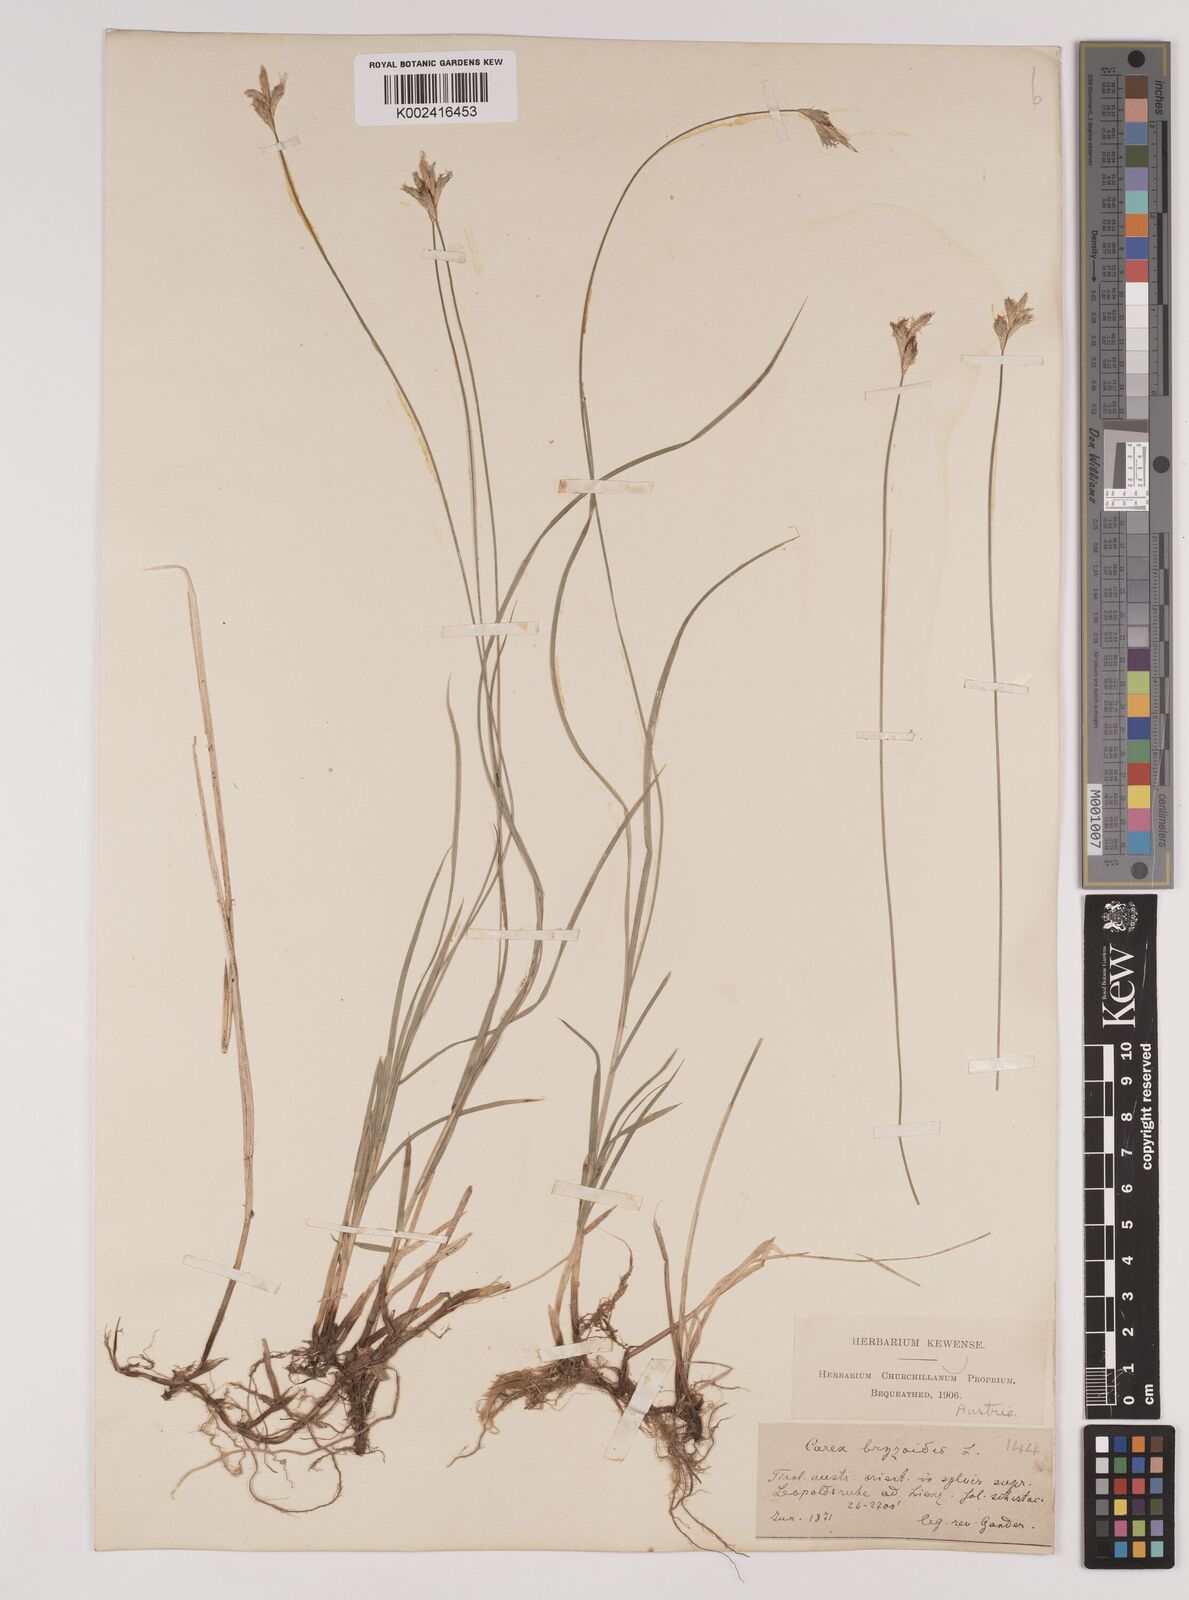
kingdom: Plantae
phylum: Tracheophyta
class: Liliopsida
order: Poales
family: Cyperaceae
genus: Carex
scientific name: Carex brizoides
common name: Quaking-grass sedge
